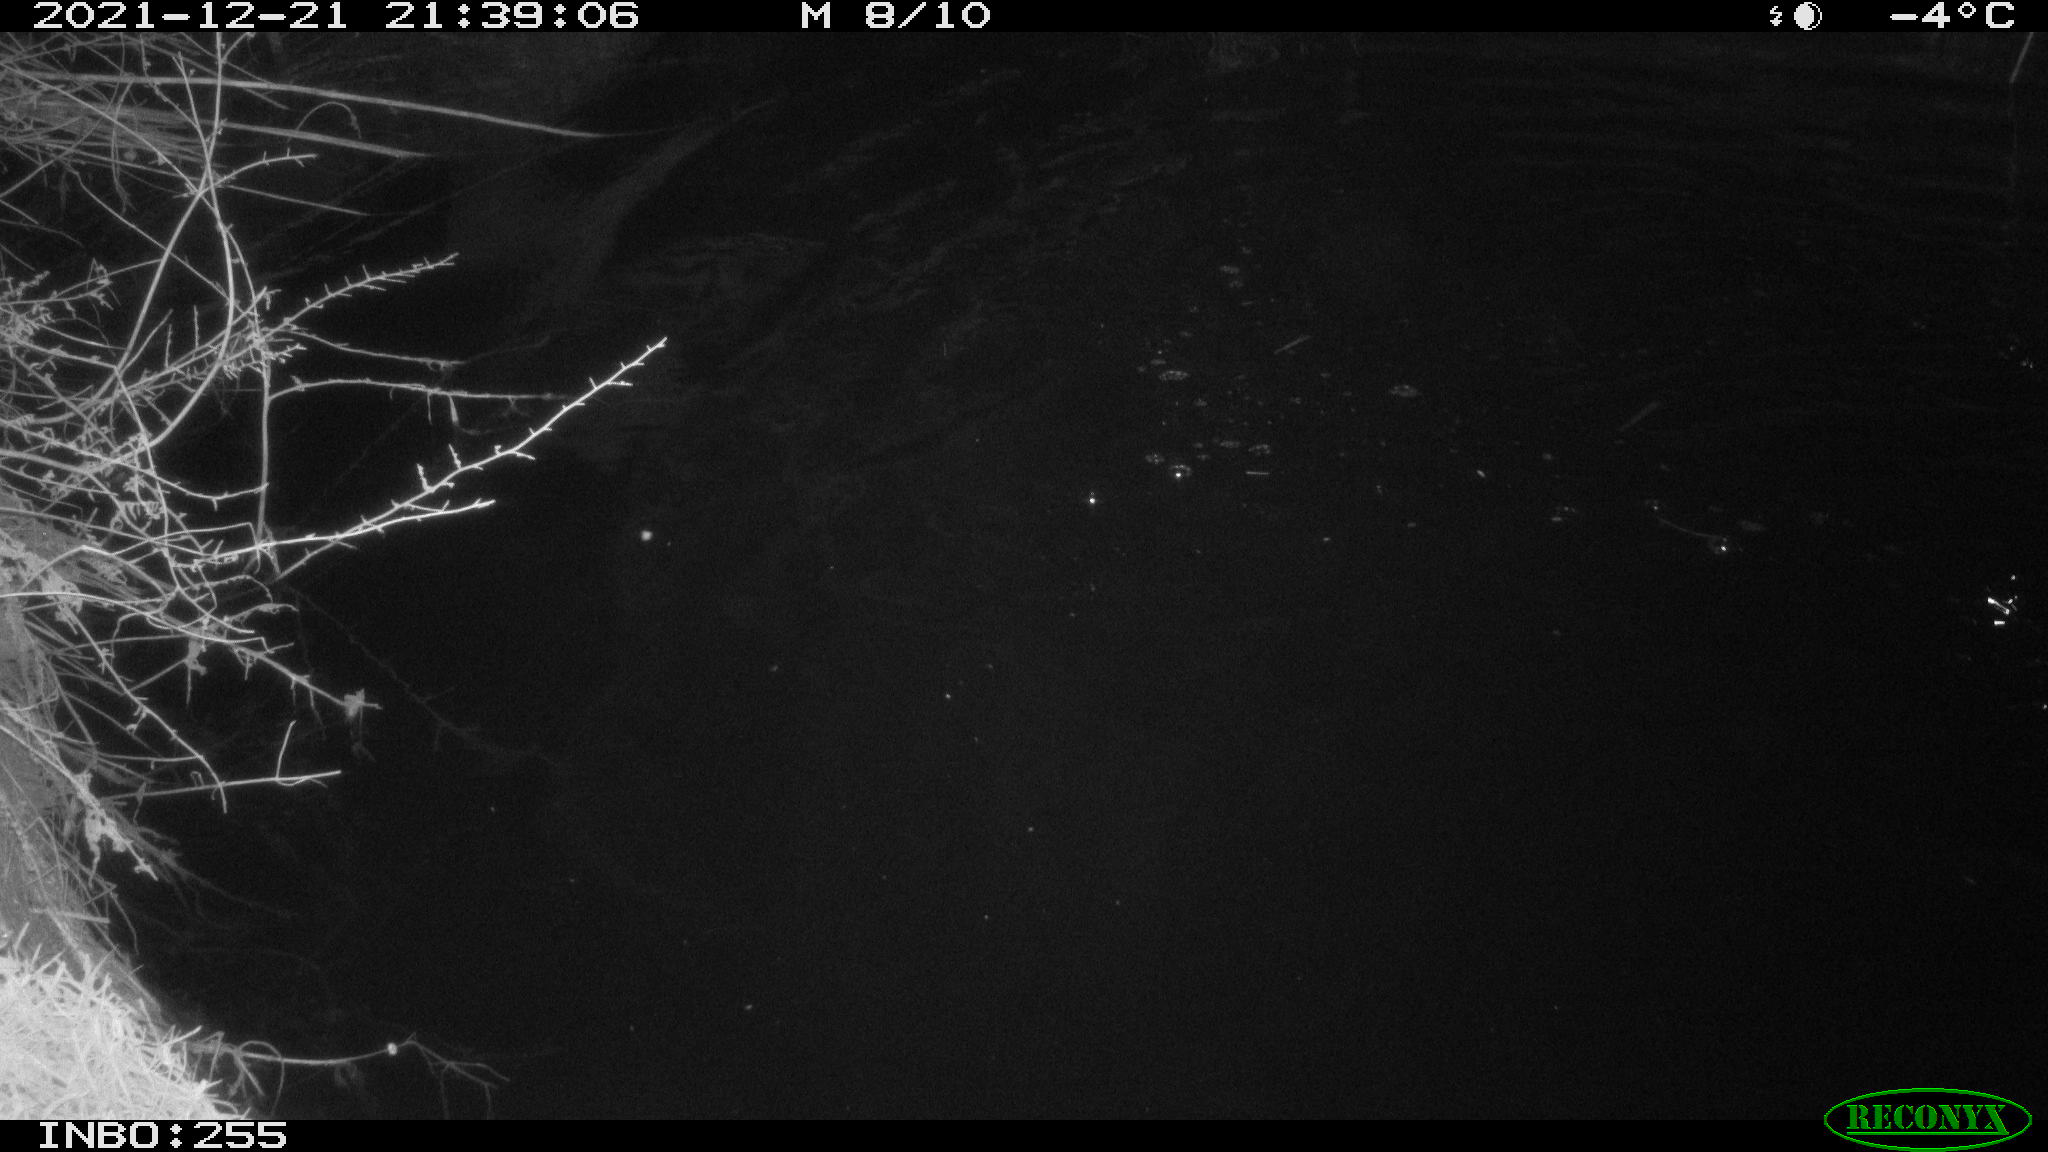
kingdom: Animalia
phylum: Chordata
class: Aves
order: Anseriformes
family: Anatidae
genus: Anas
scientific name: Anas platyrhynchos
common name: Mallard
